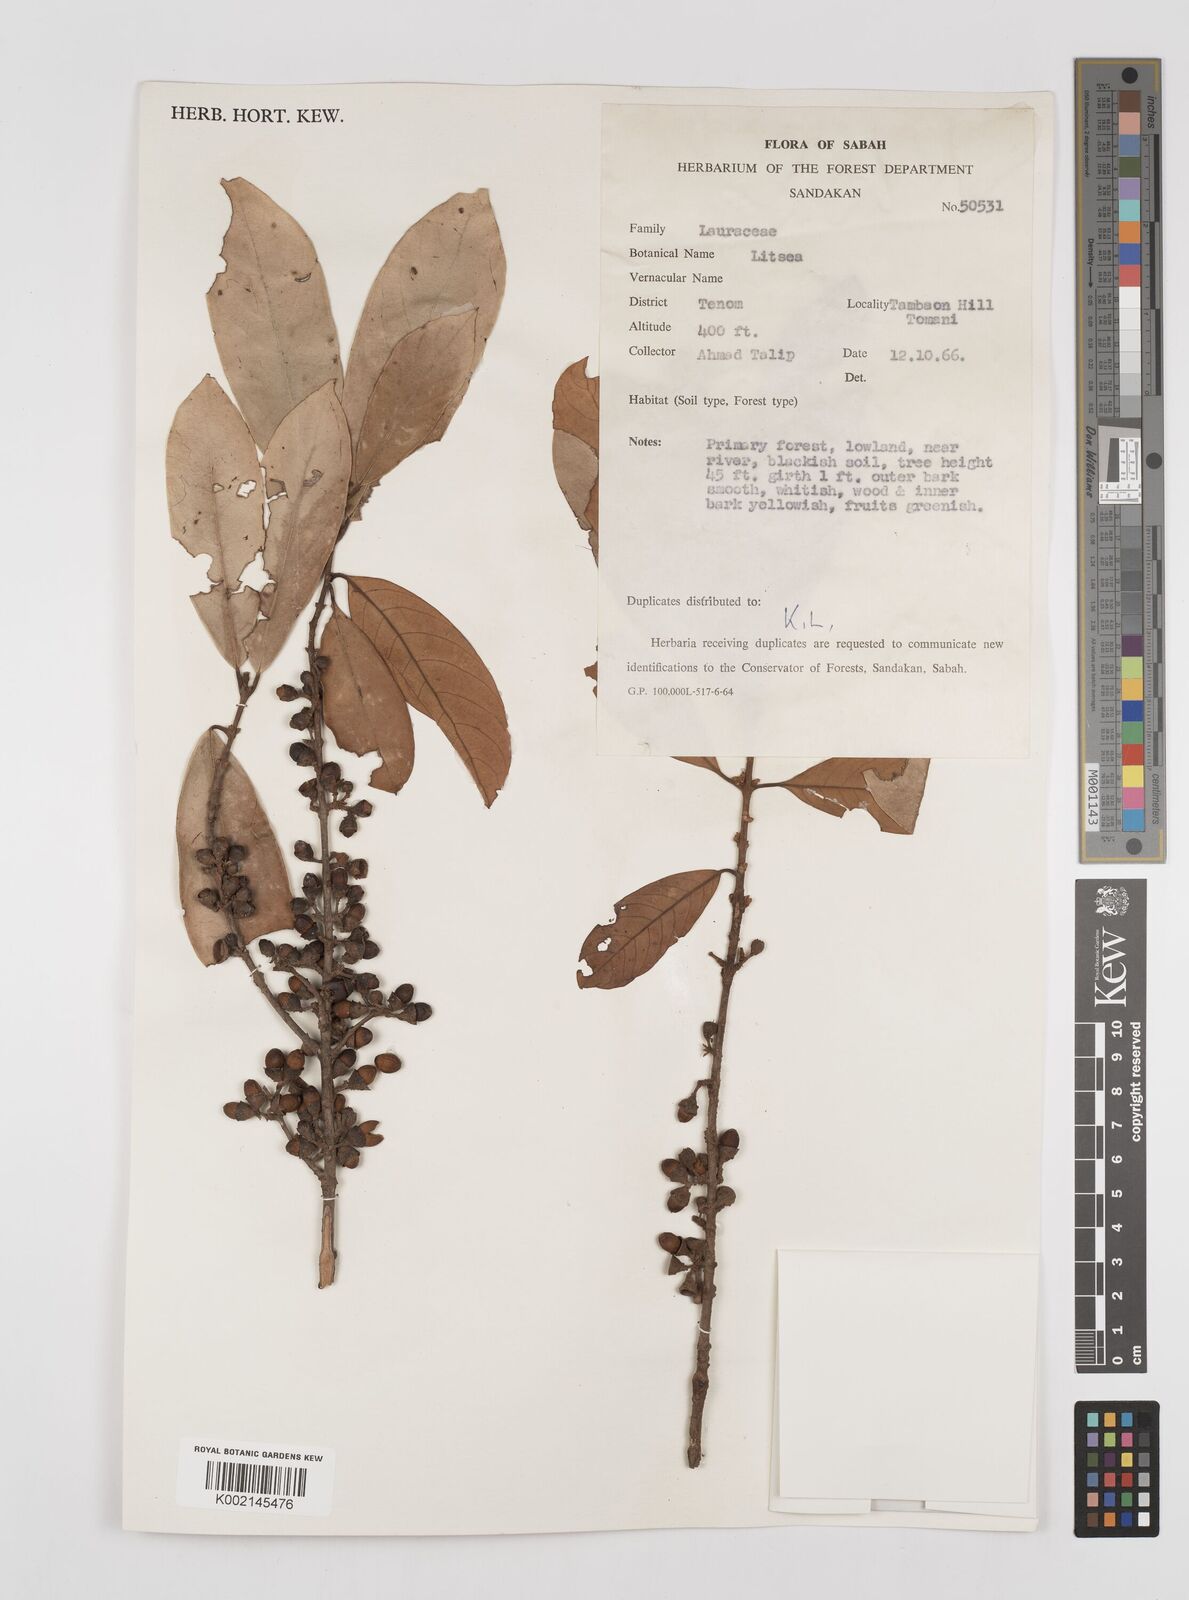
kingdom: Plantae
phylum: Tracheophyta
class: Magnoliopsida
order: Laurales
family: Lauraceae
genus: Litsea
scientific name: Litsea
